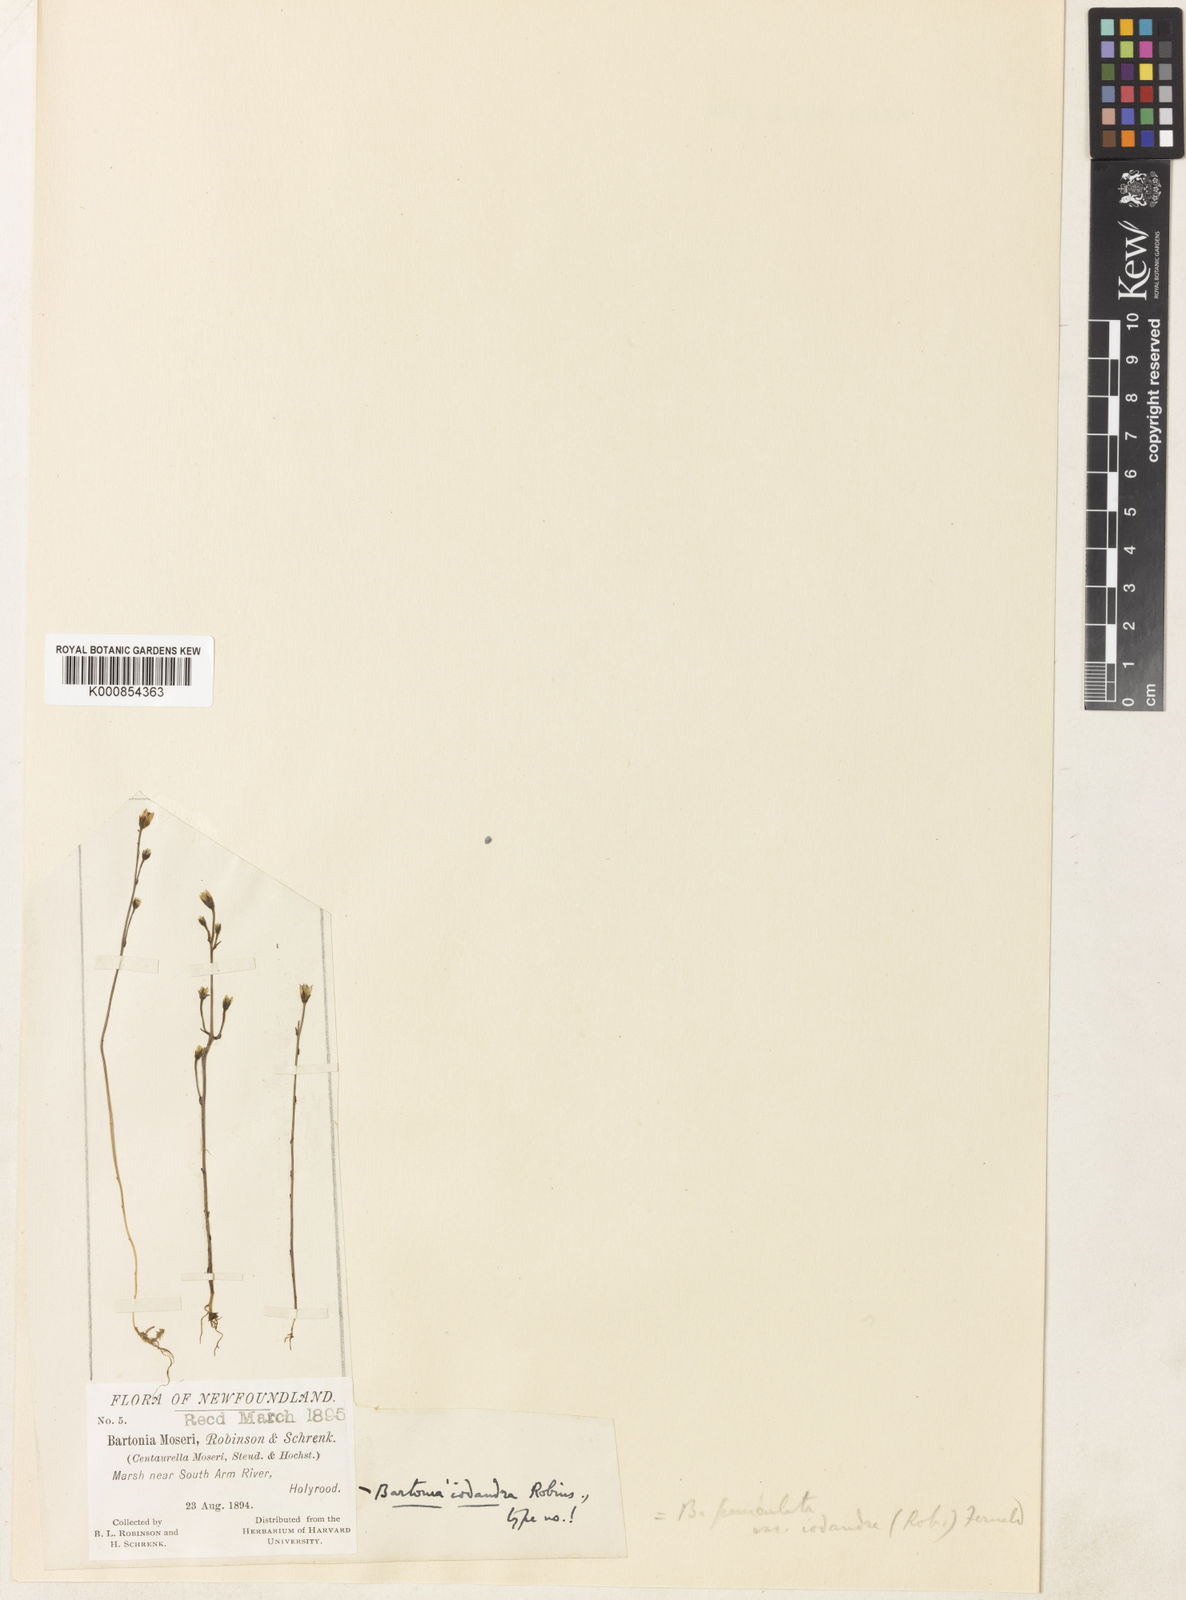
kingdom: Plantae
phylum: Tracheophyta
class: Magnoliopsida
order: Gentianales
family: Gentianaceae
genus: Bartonia
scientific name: Bartonia paniculata
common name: Branched bartonia
